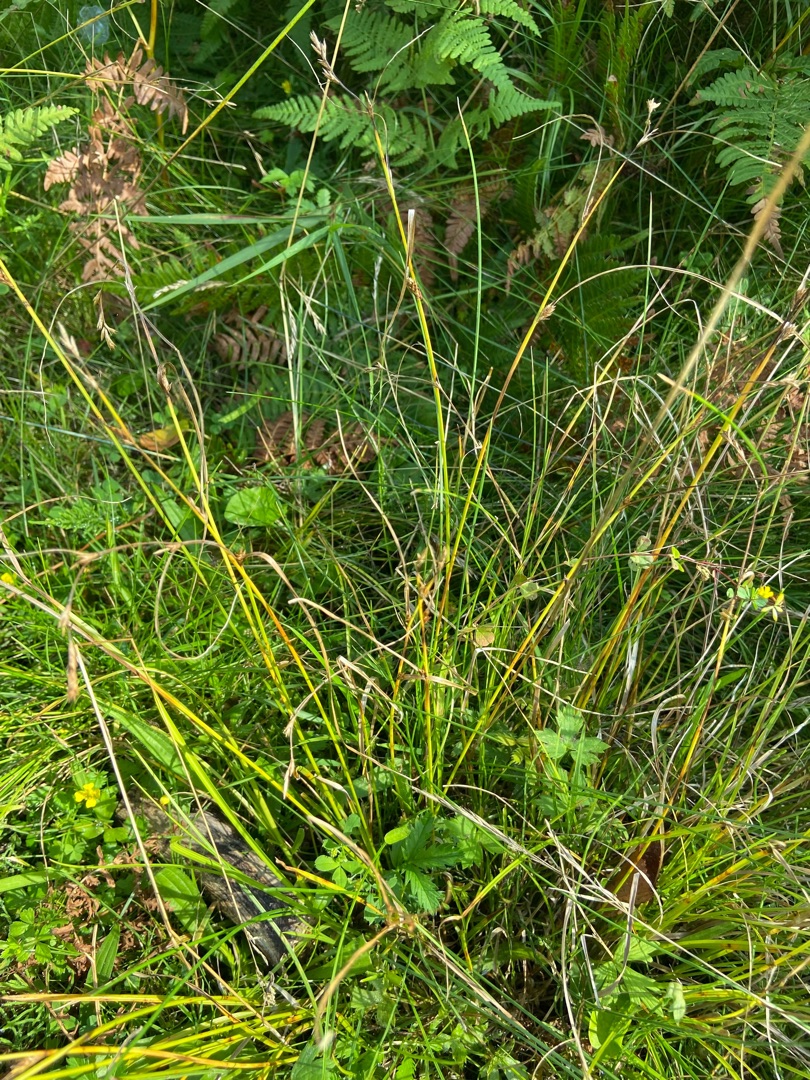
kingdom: Plantae
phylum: Tracheophyta
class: Liliopsida
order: Poales
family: Cyperaceae
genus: Carex
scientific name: Carex remota
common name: Akselblomstret star
